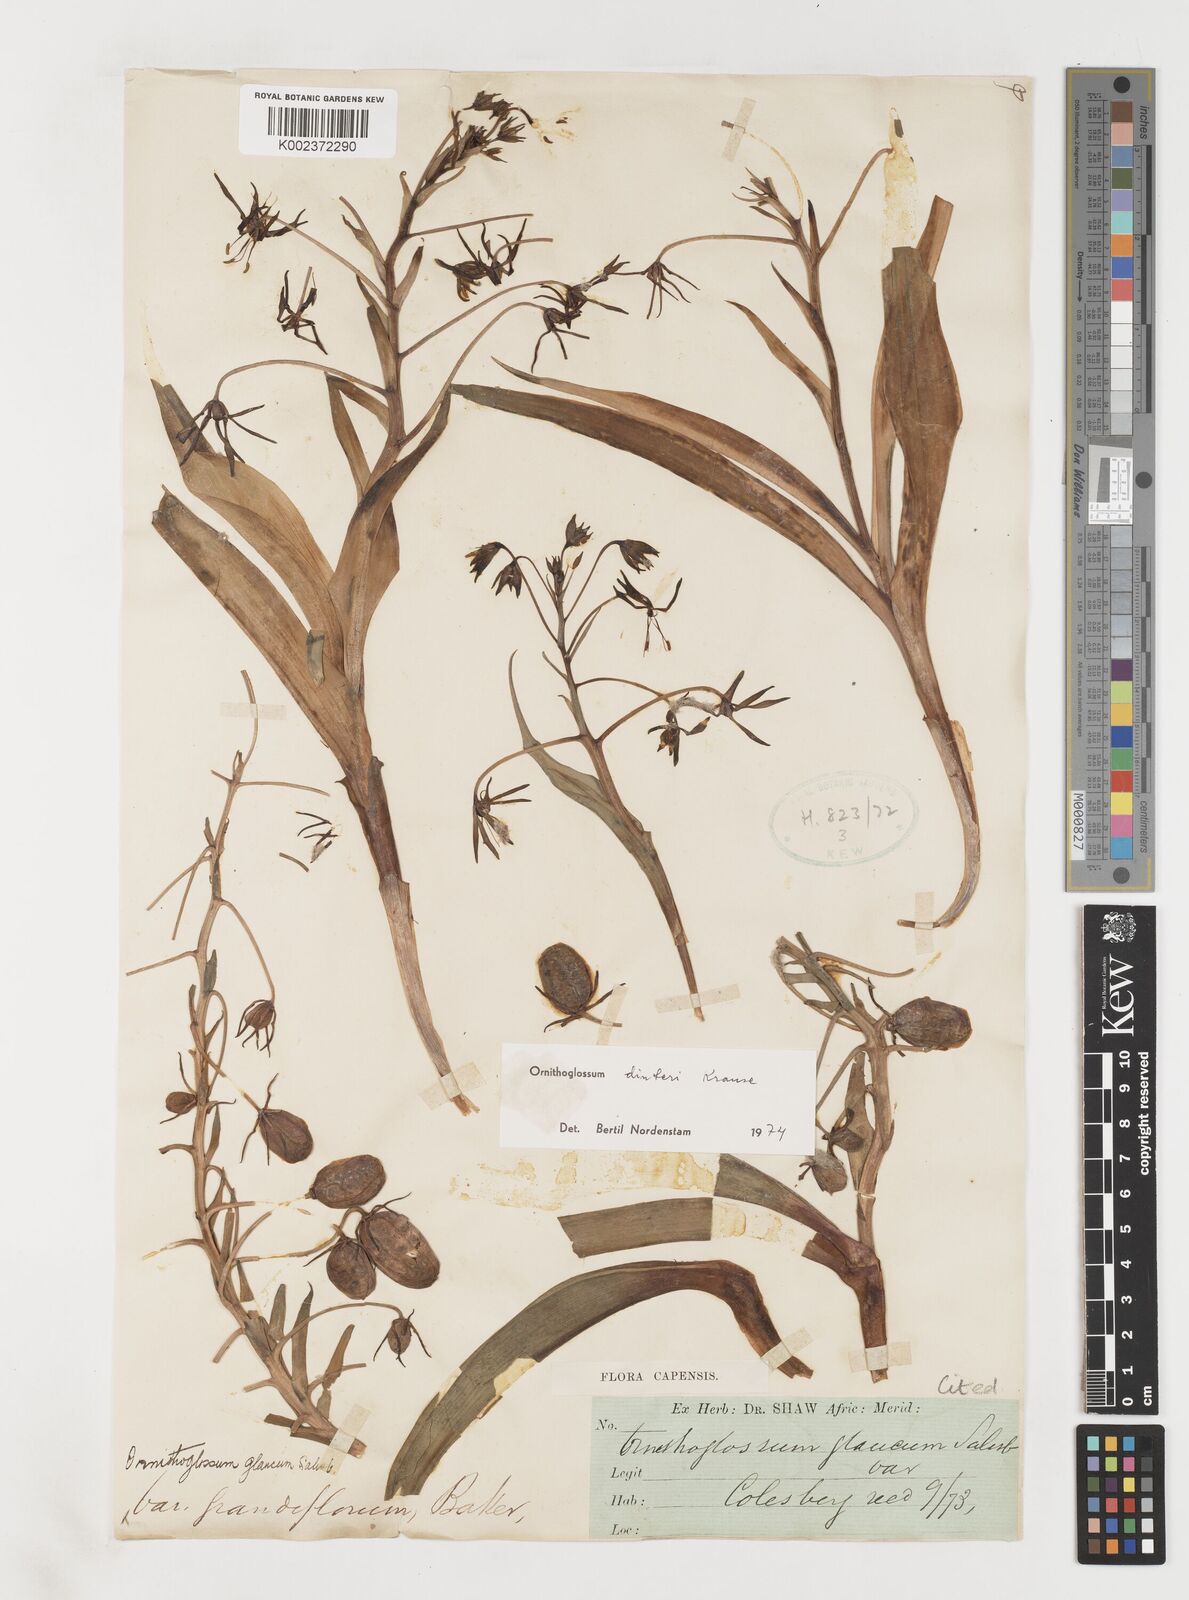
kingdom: Plantae
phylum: Tracheophyta
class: Liliopsida
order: Liliales
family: Colchicaceae
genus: Ornithoglossum
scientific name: Ornithoglossum dinteri
